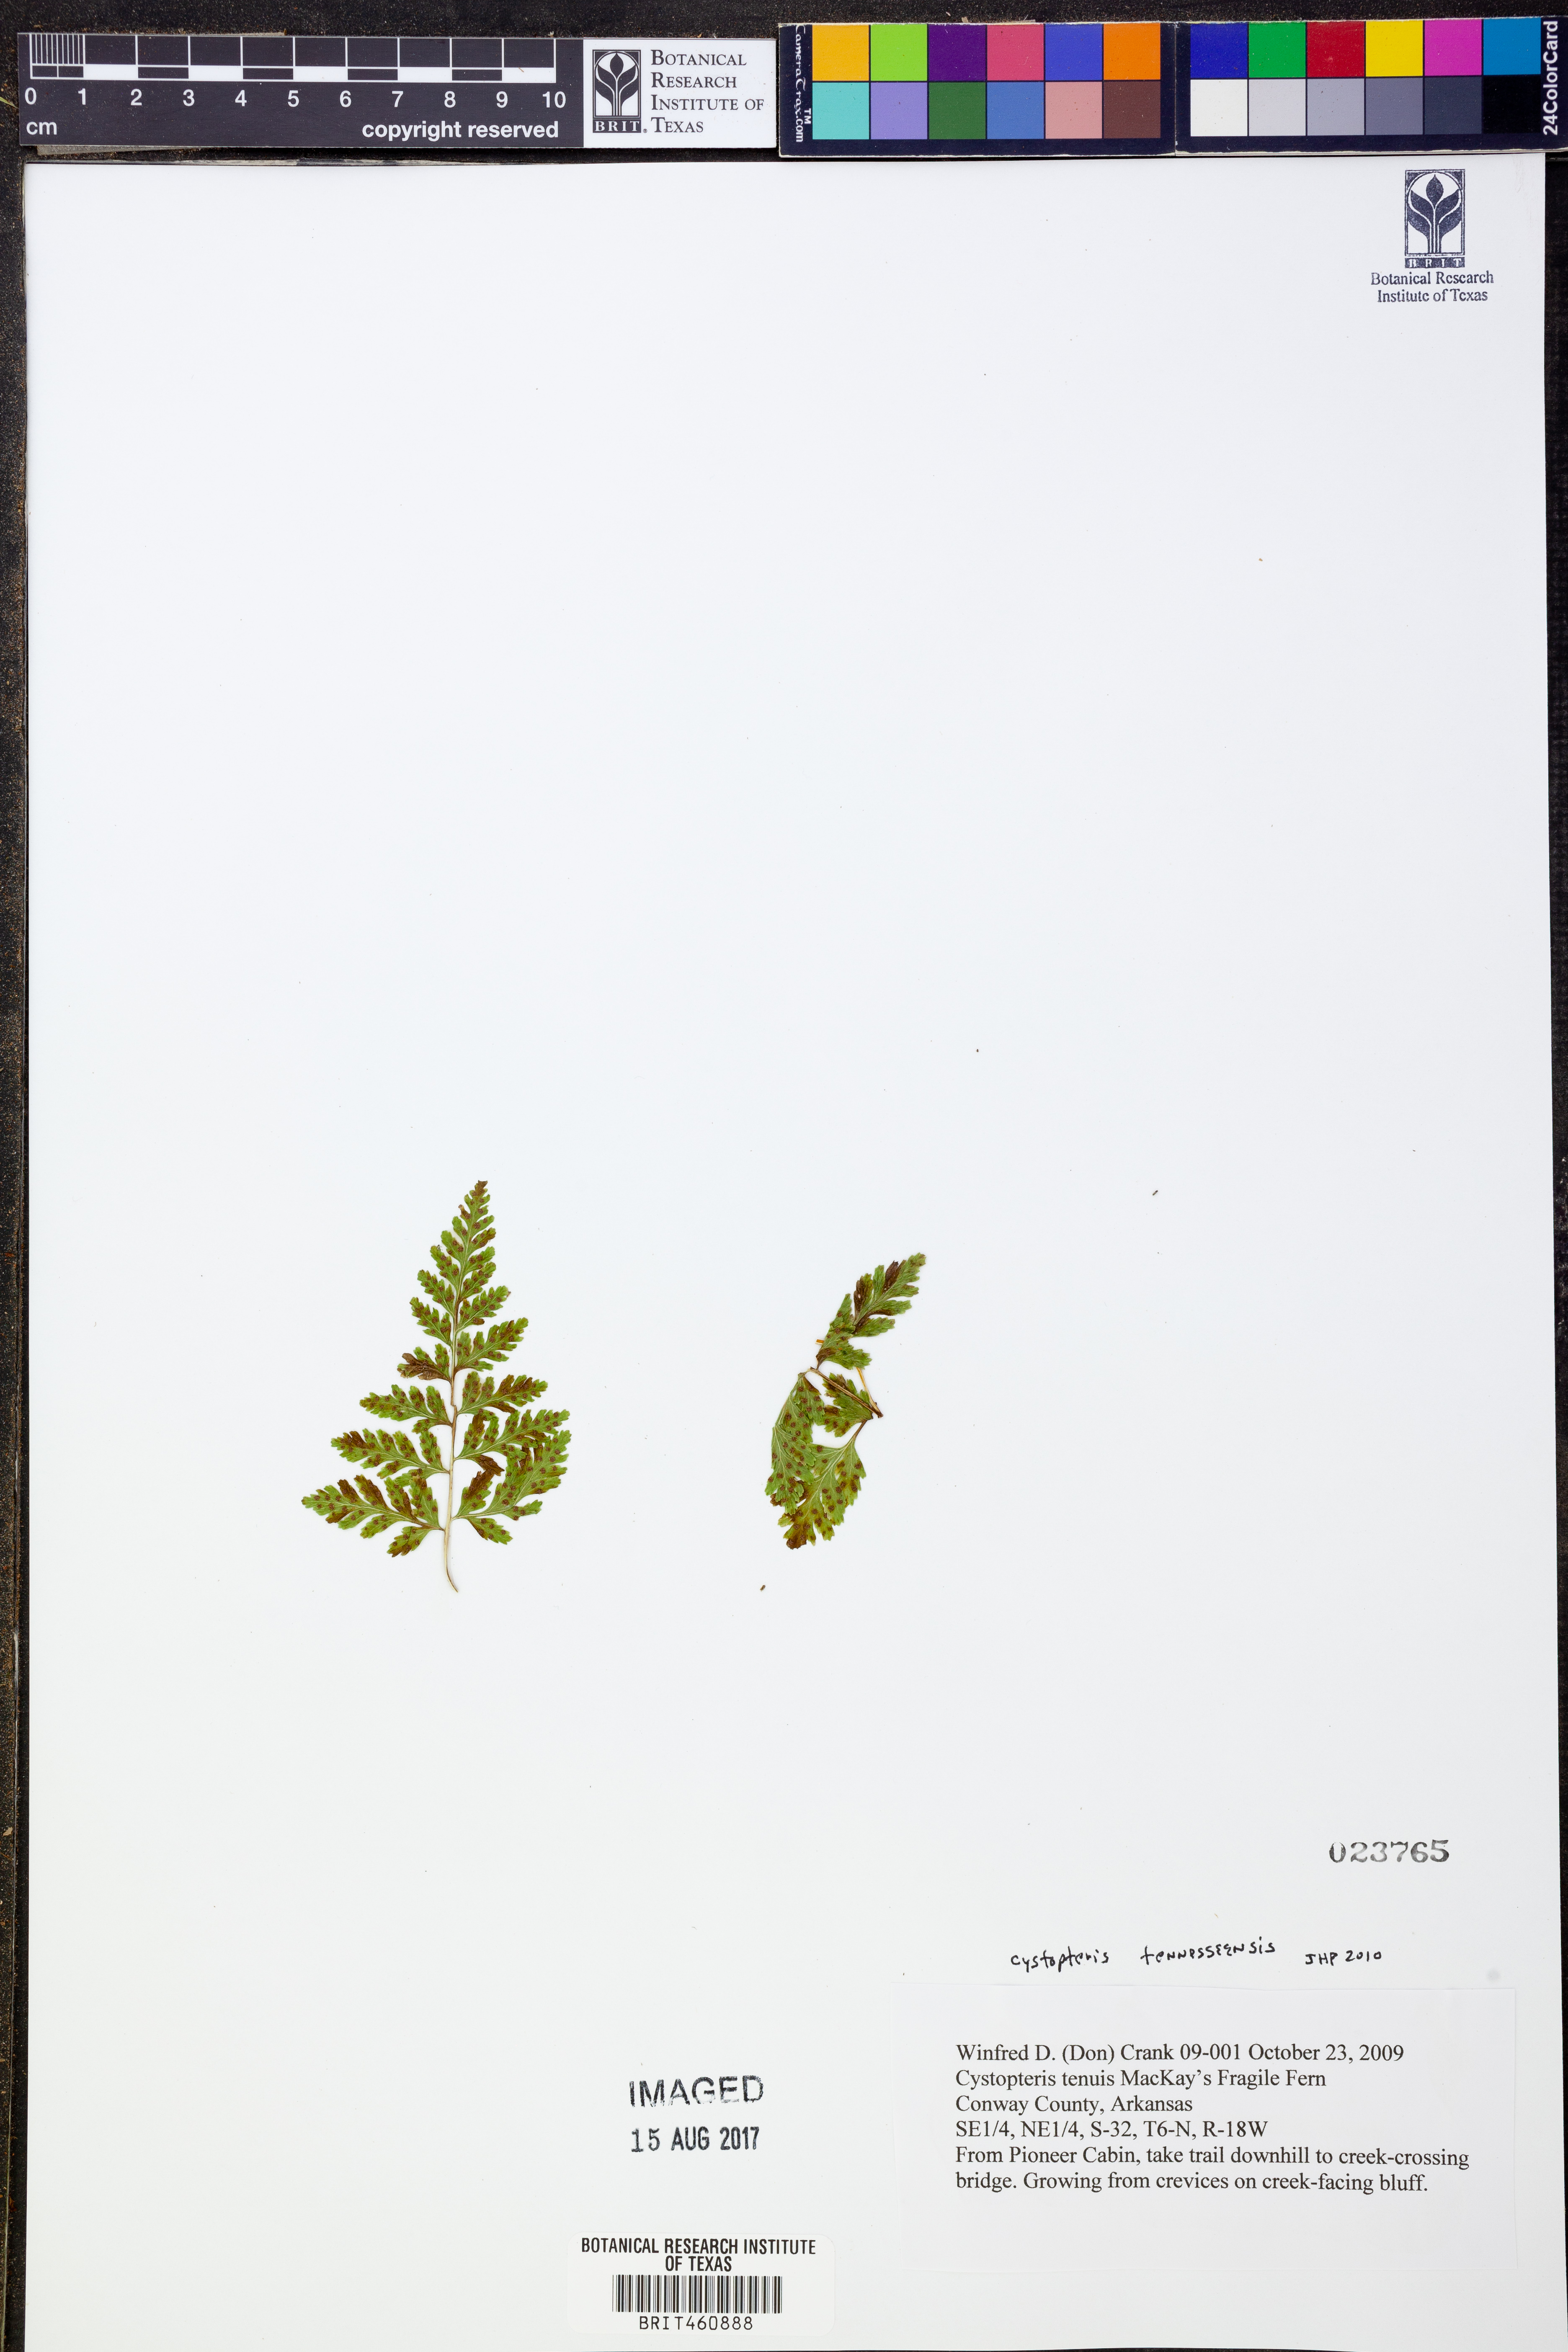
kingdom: Plantae
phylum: Tracheophyta
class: Polypodiopsida
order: Polypodiales
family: Cystopteridaceae
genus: Cystopteris
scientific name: Cystopteris tenuis
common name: Mackay's brittle fern
